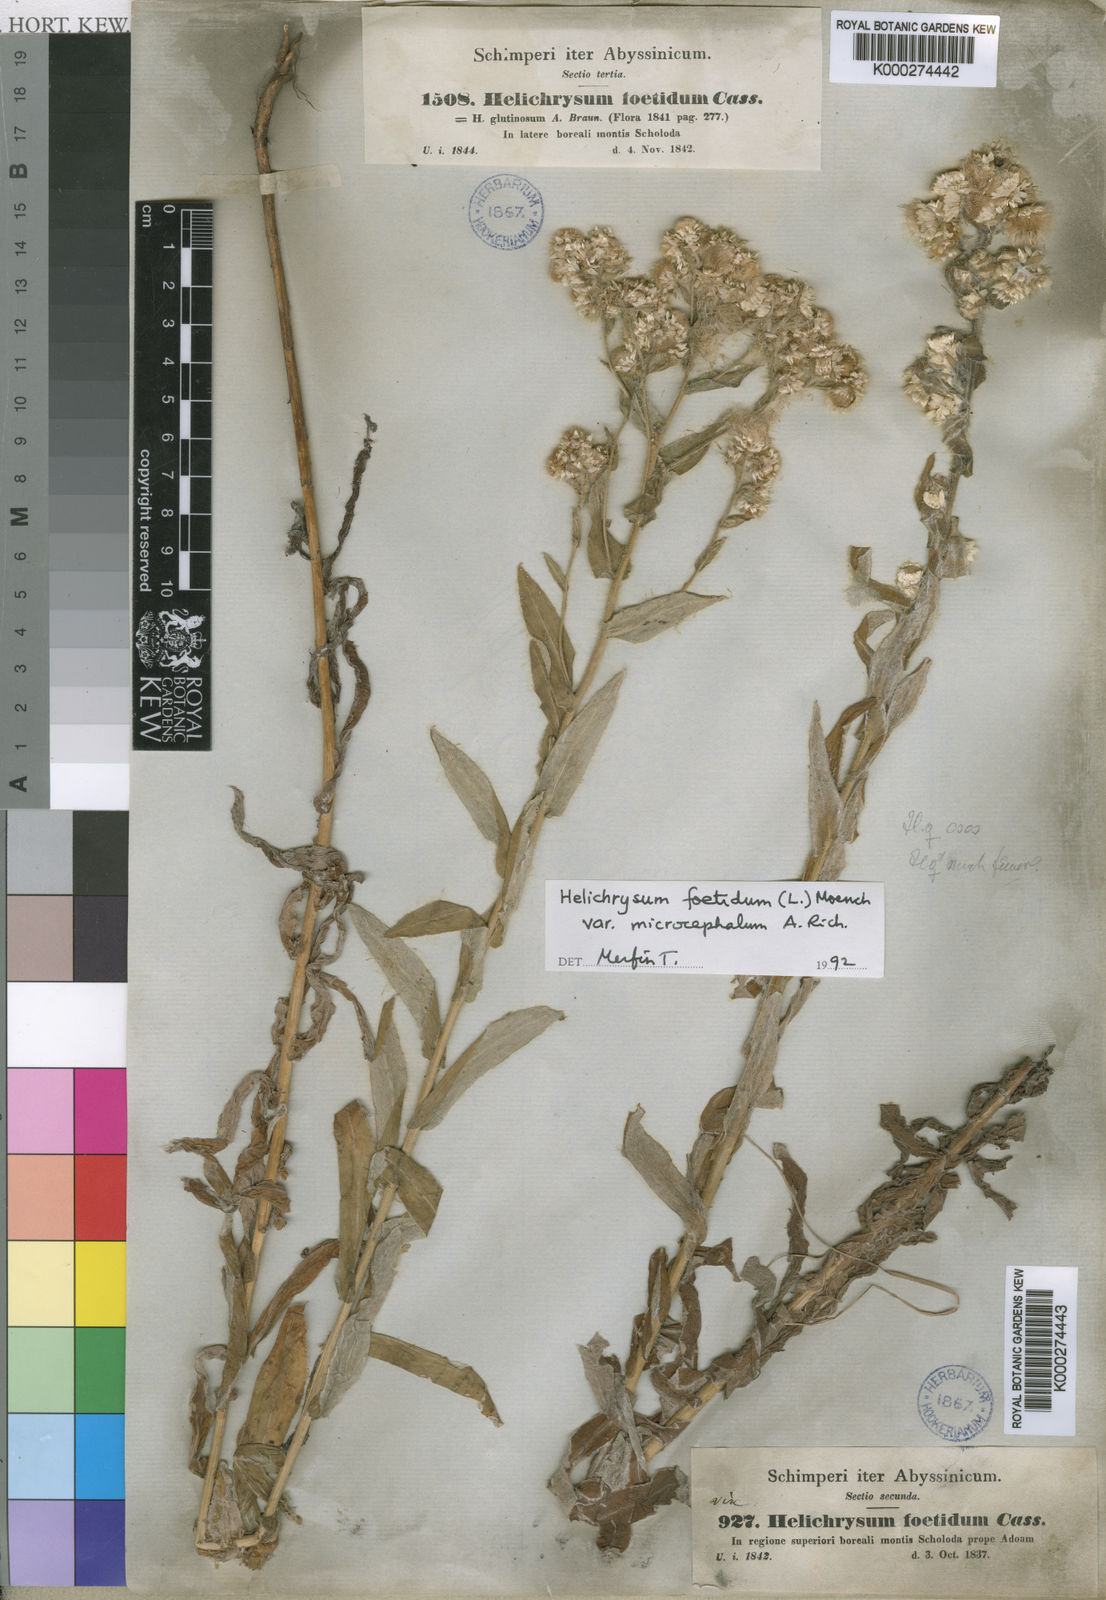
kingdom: Plantae
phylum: Tracheophyta
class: Magnoliopsida
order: Asterales
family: Asteraceae
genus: Helichrysum
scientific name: Helichrysum
